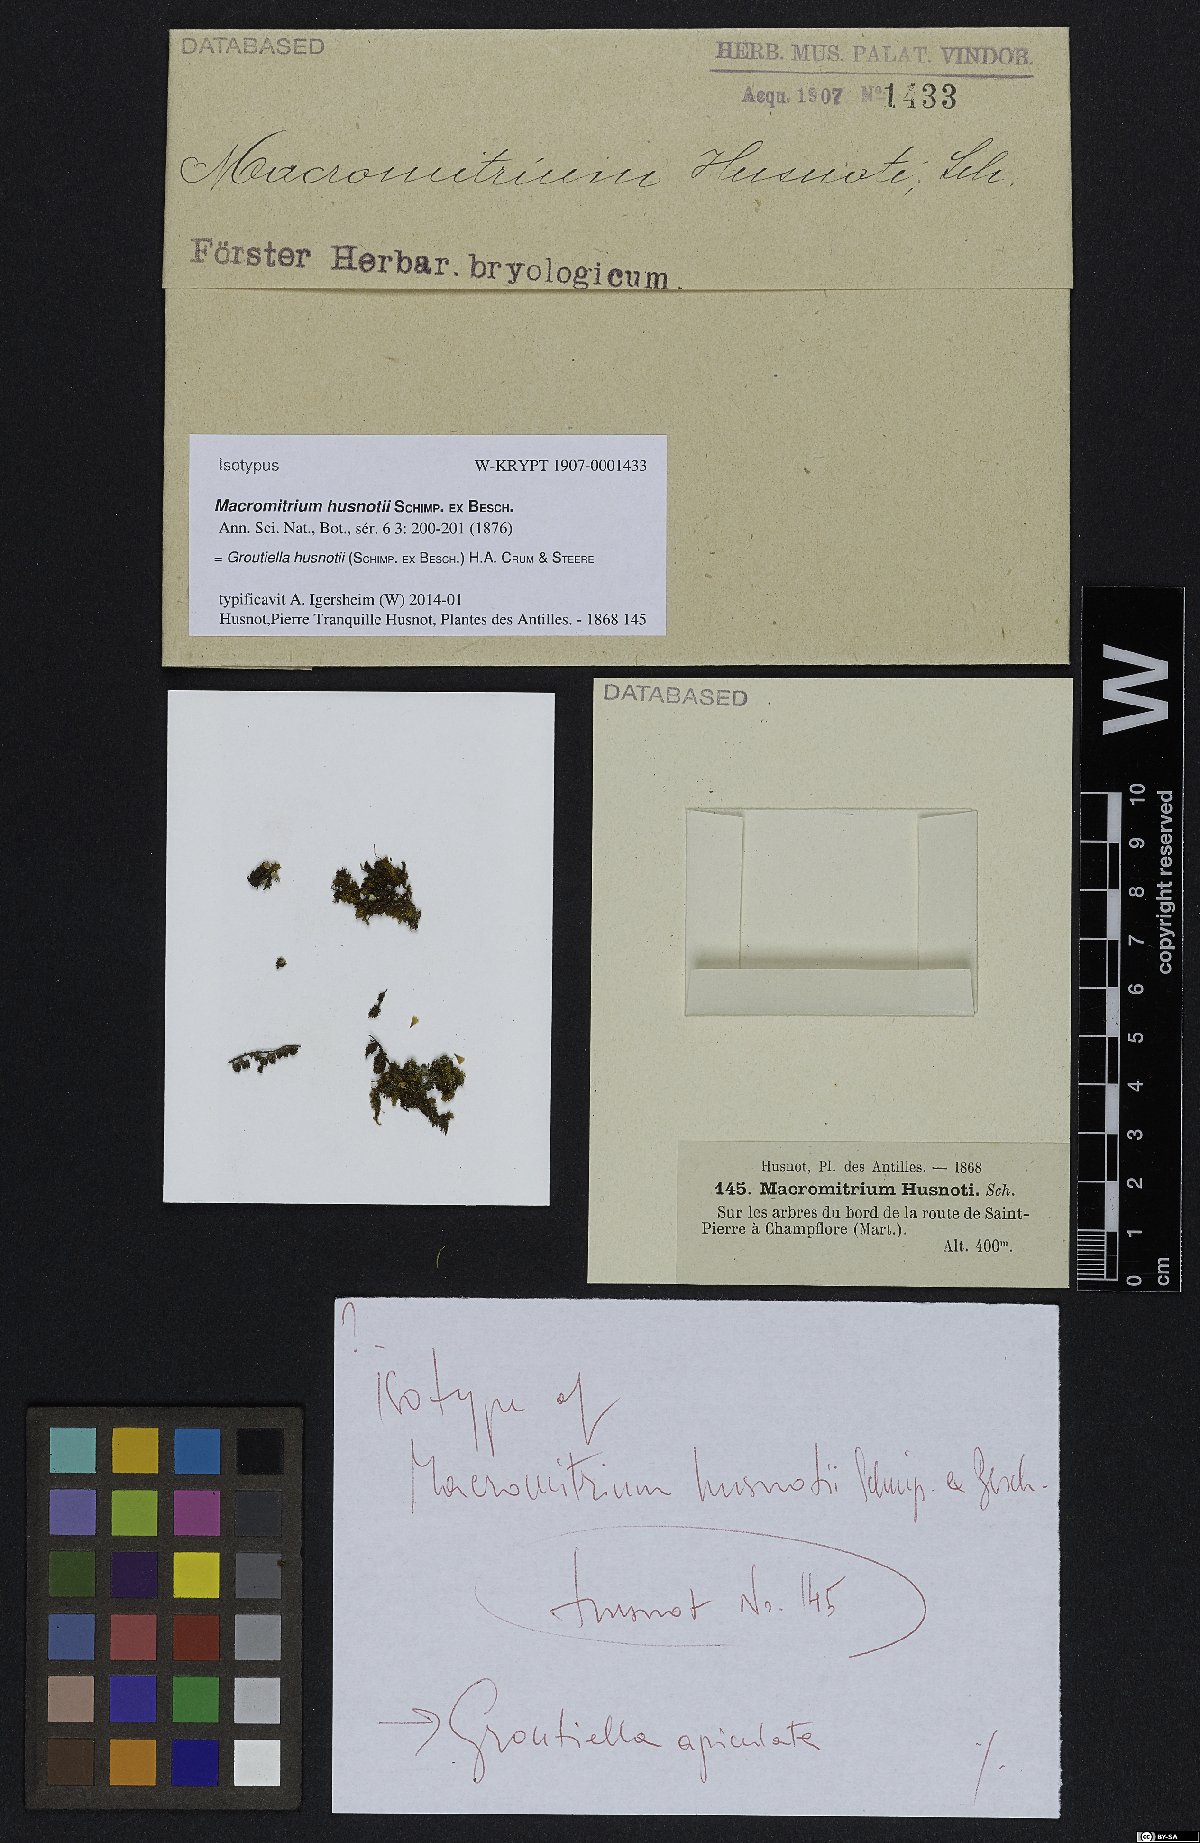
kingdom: Plantae
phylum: Bryophyta
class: Bryopsida
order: Orthotrichales
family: Orthotrichaceae
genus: Groutiella
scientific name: Groutiella husnotii
